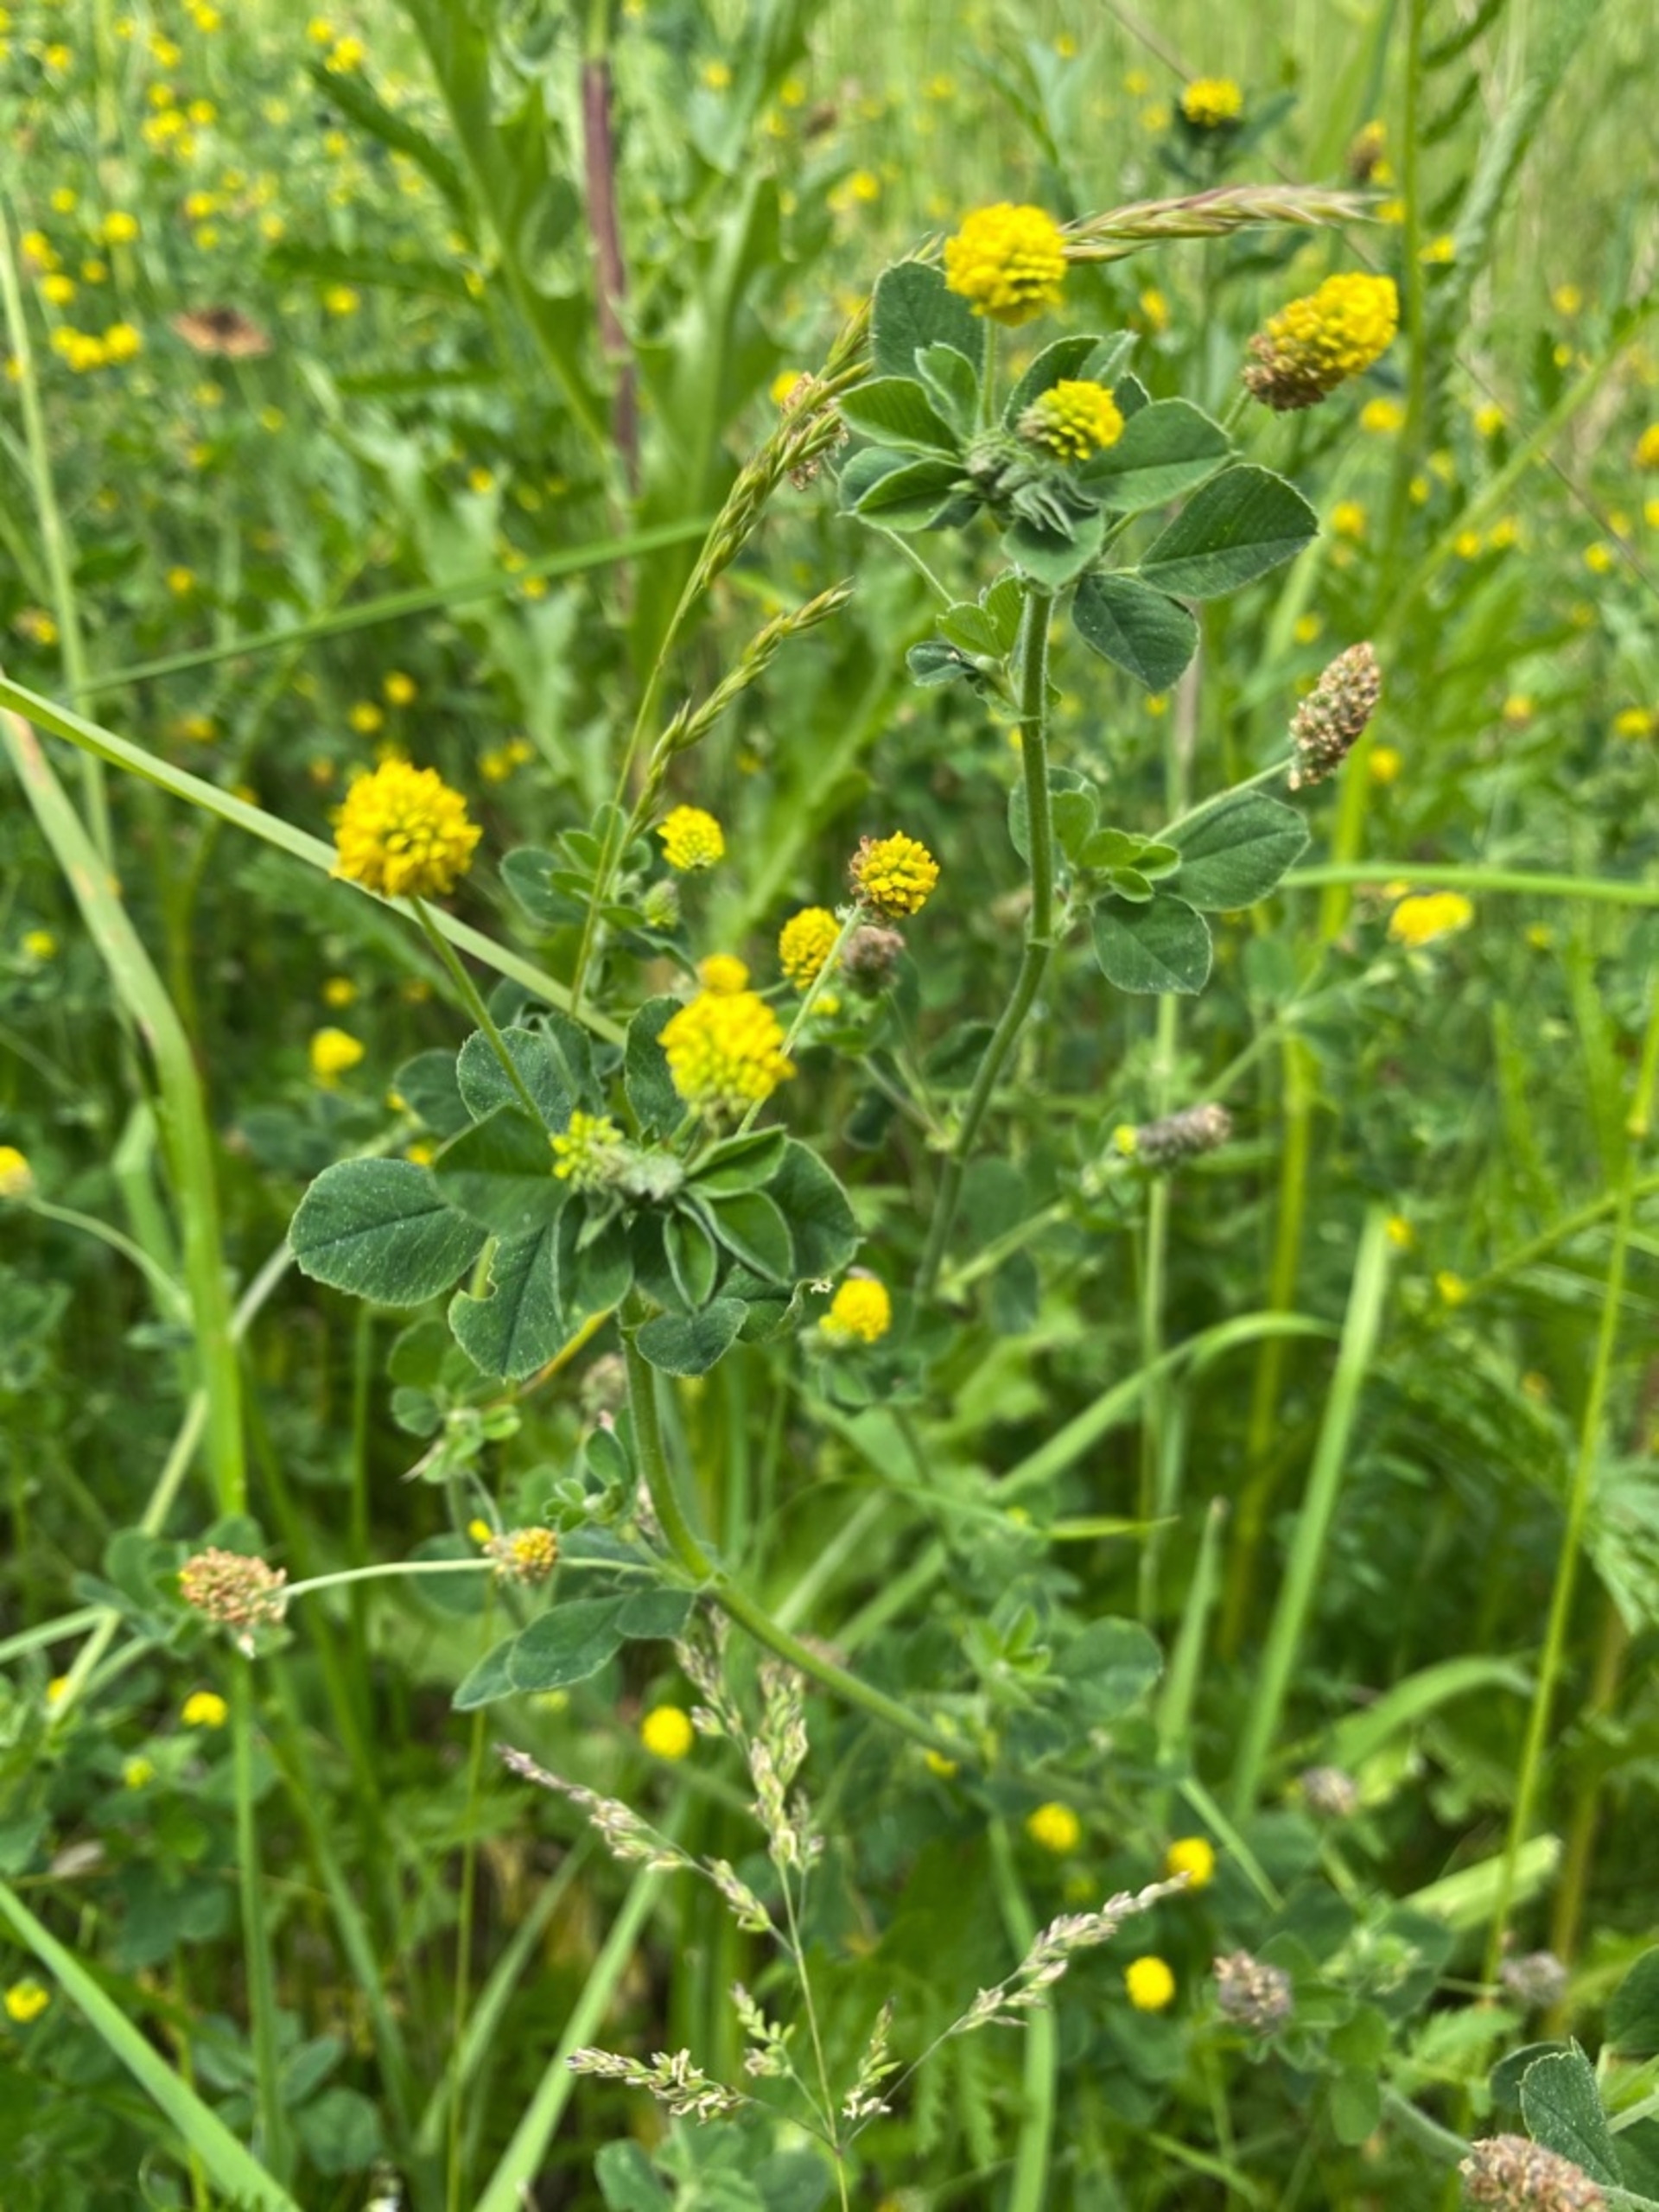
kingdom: Plantae
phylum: Tracheophyta
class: Magnoliopsida
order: Fabales
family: Fabaceae
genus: Medicago
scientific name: Medicago lupulina
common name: Humle-sneglebælg
